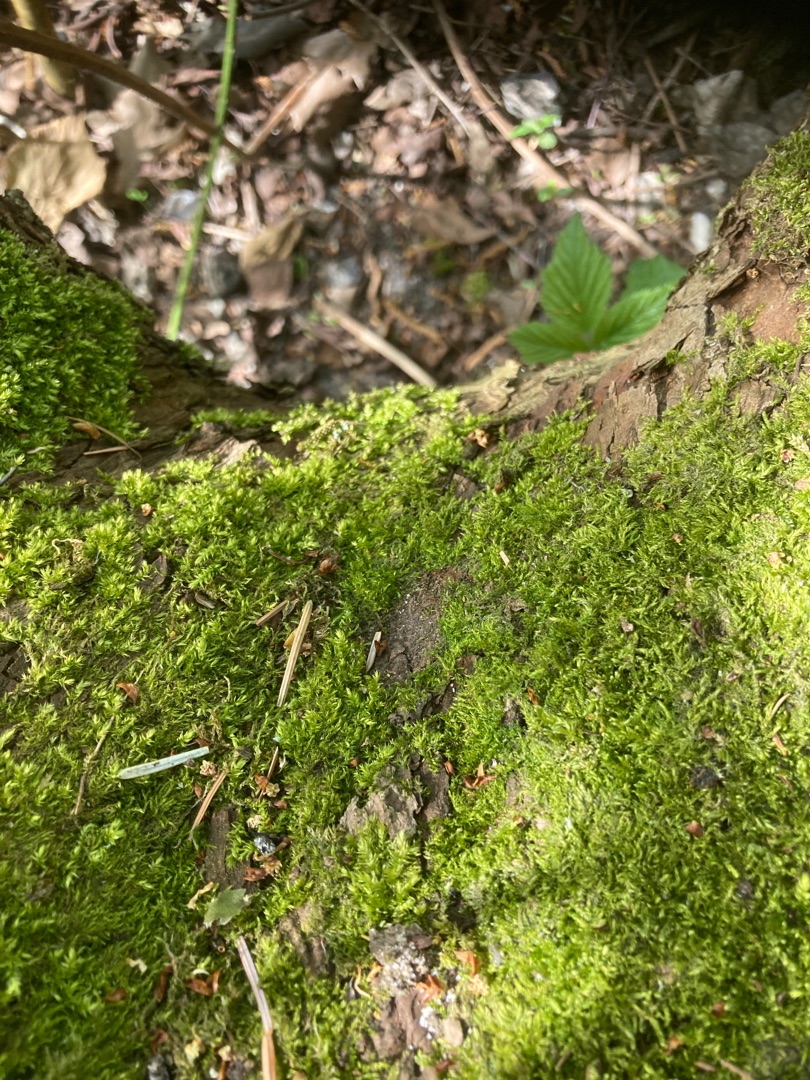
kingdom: Plantae
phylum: Bryophyta
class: Bryopsida
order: Hypnales
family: Hypnaceae
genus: Hypnum
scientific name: Hypnum
